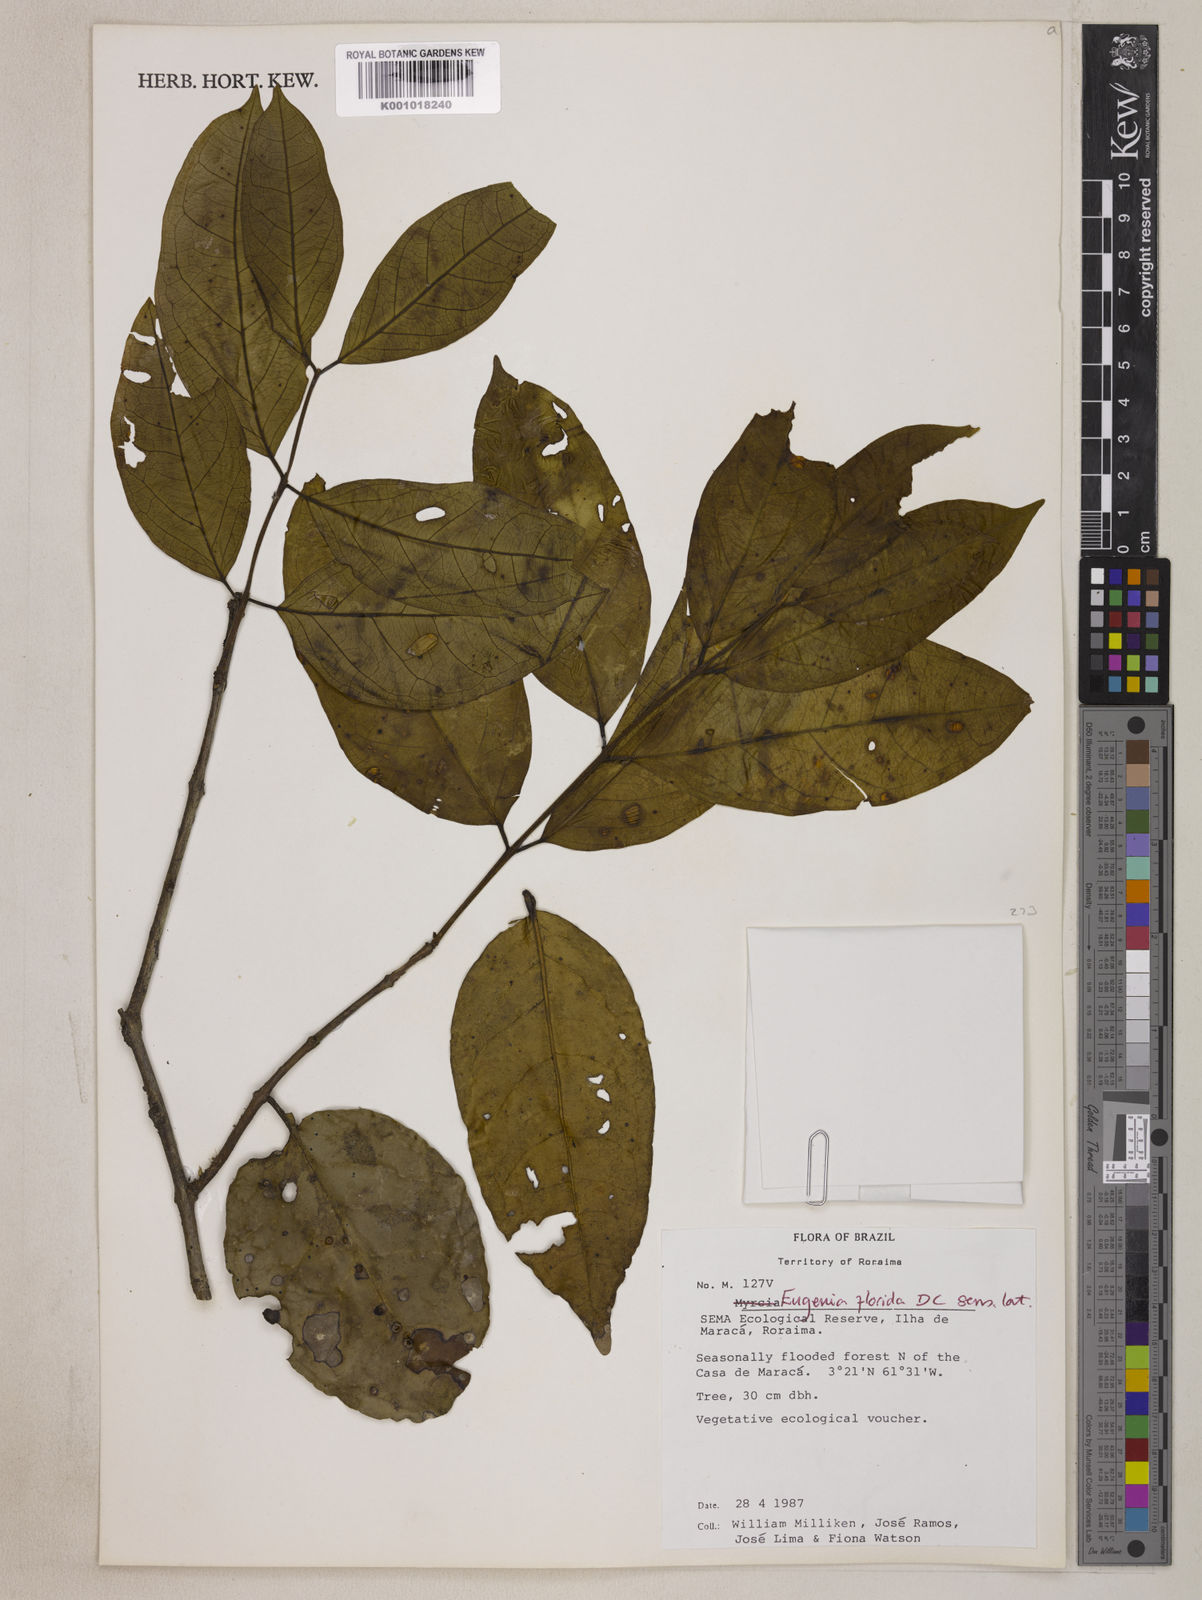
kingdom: Plantae
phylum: Tracheophyta
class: Magnoliopsida
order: Myrtales
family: Myrtaceae
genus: Eugenia
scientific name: Eugenia florida
